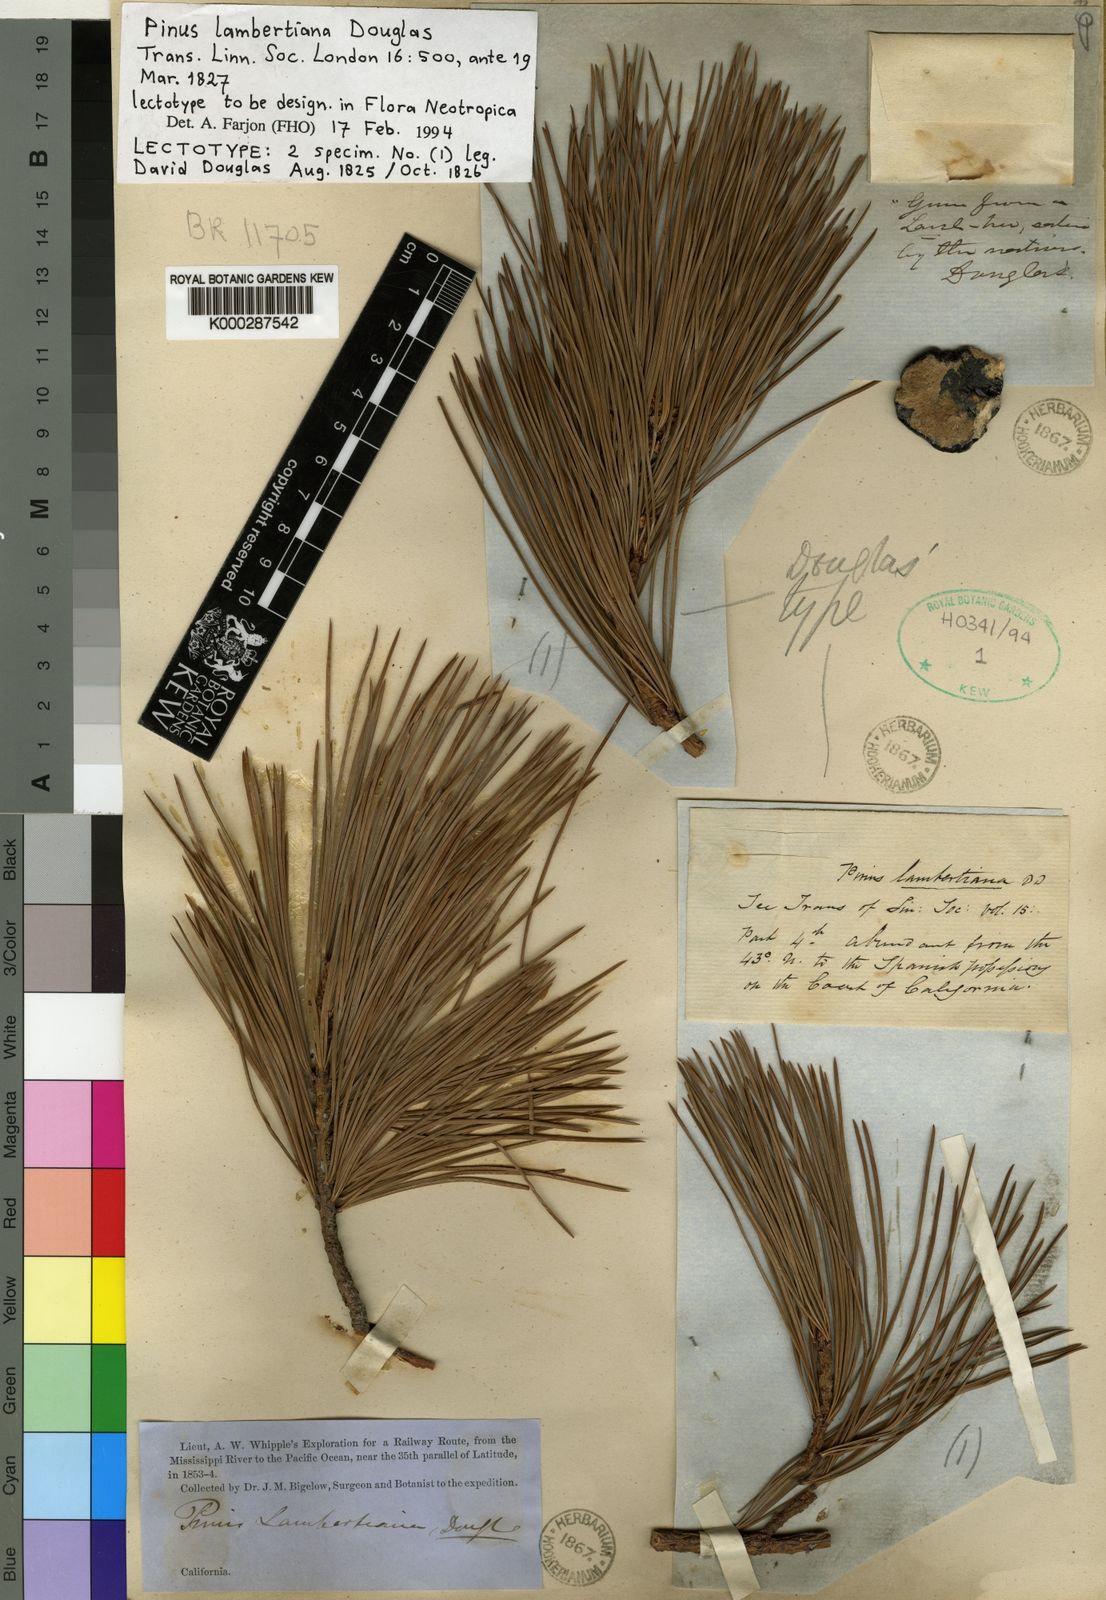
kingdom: Plantae
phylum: Tracheophyta
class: Pinopsida
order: Pinales
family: Pinaceae
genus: Pinus
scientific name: Pinus lambertiana
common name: Sugar pine
